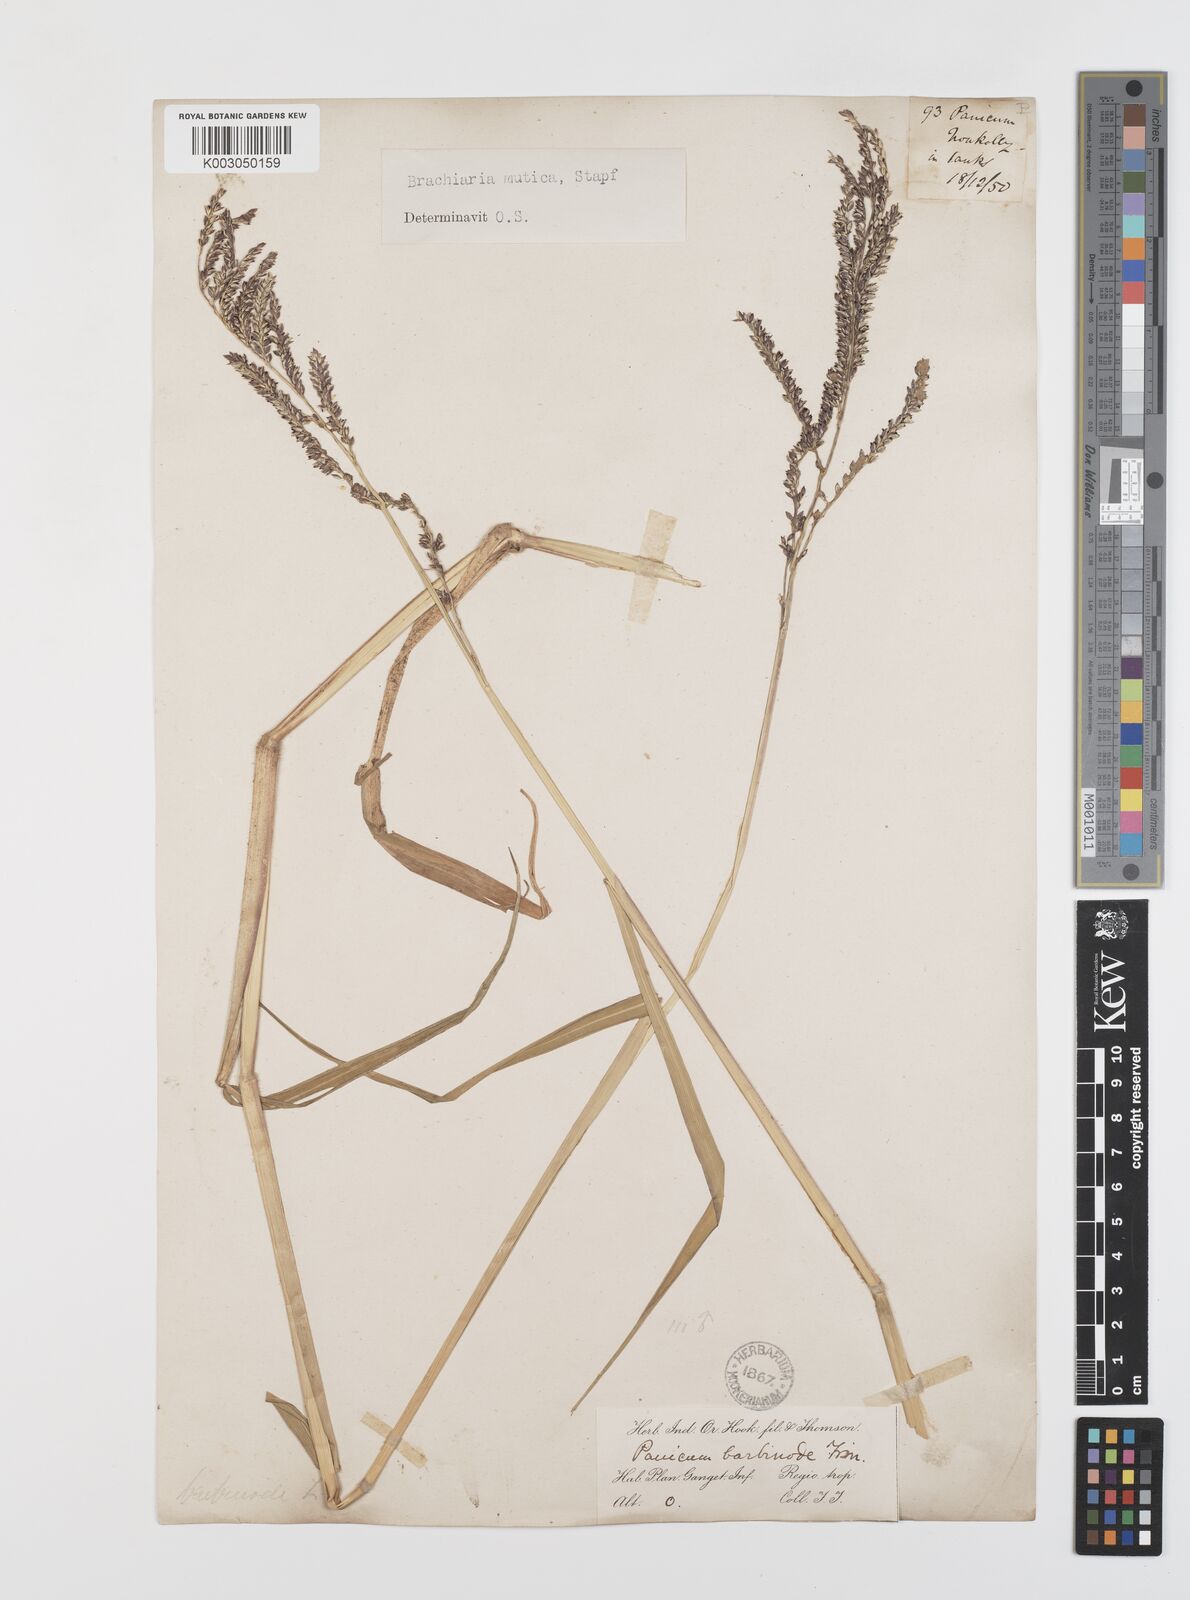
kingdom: Plantae
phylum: Tracheophyta
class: Liliopsida
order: Poales
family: Poaceae
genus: Urochloa
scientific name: Urochloa mutica
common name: Para grass
